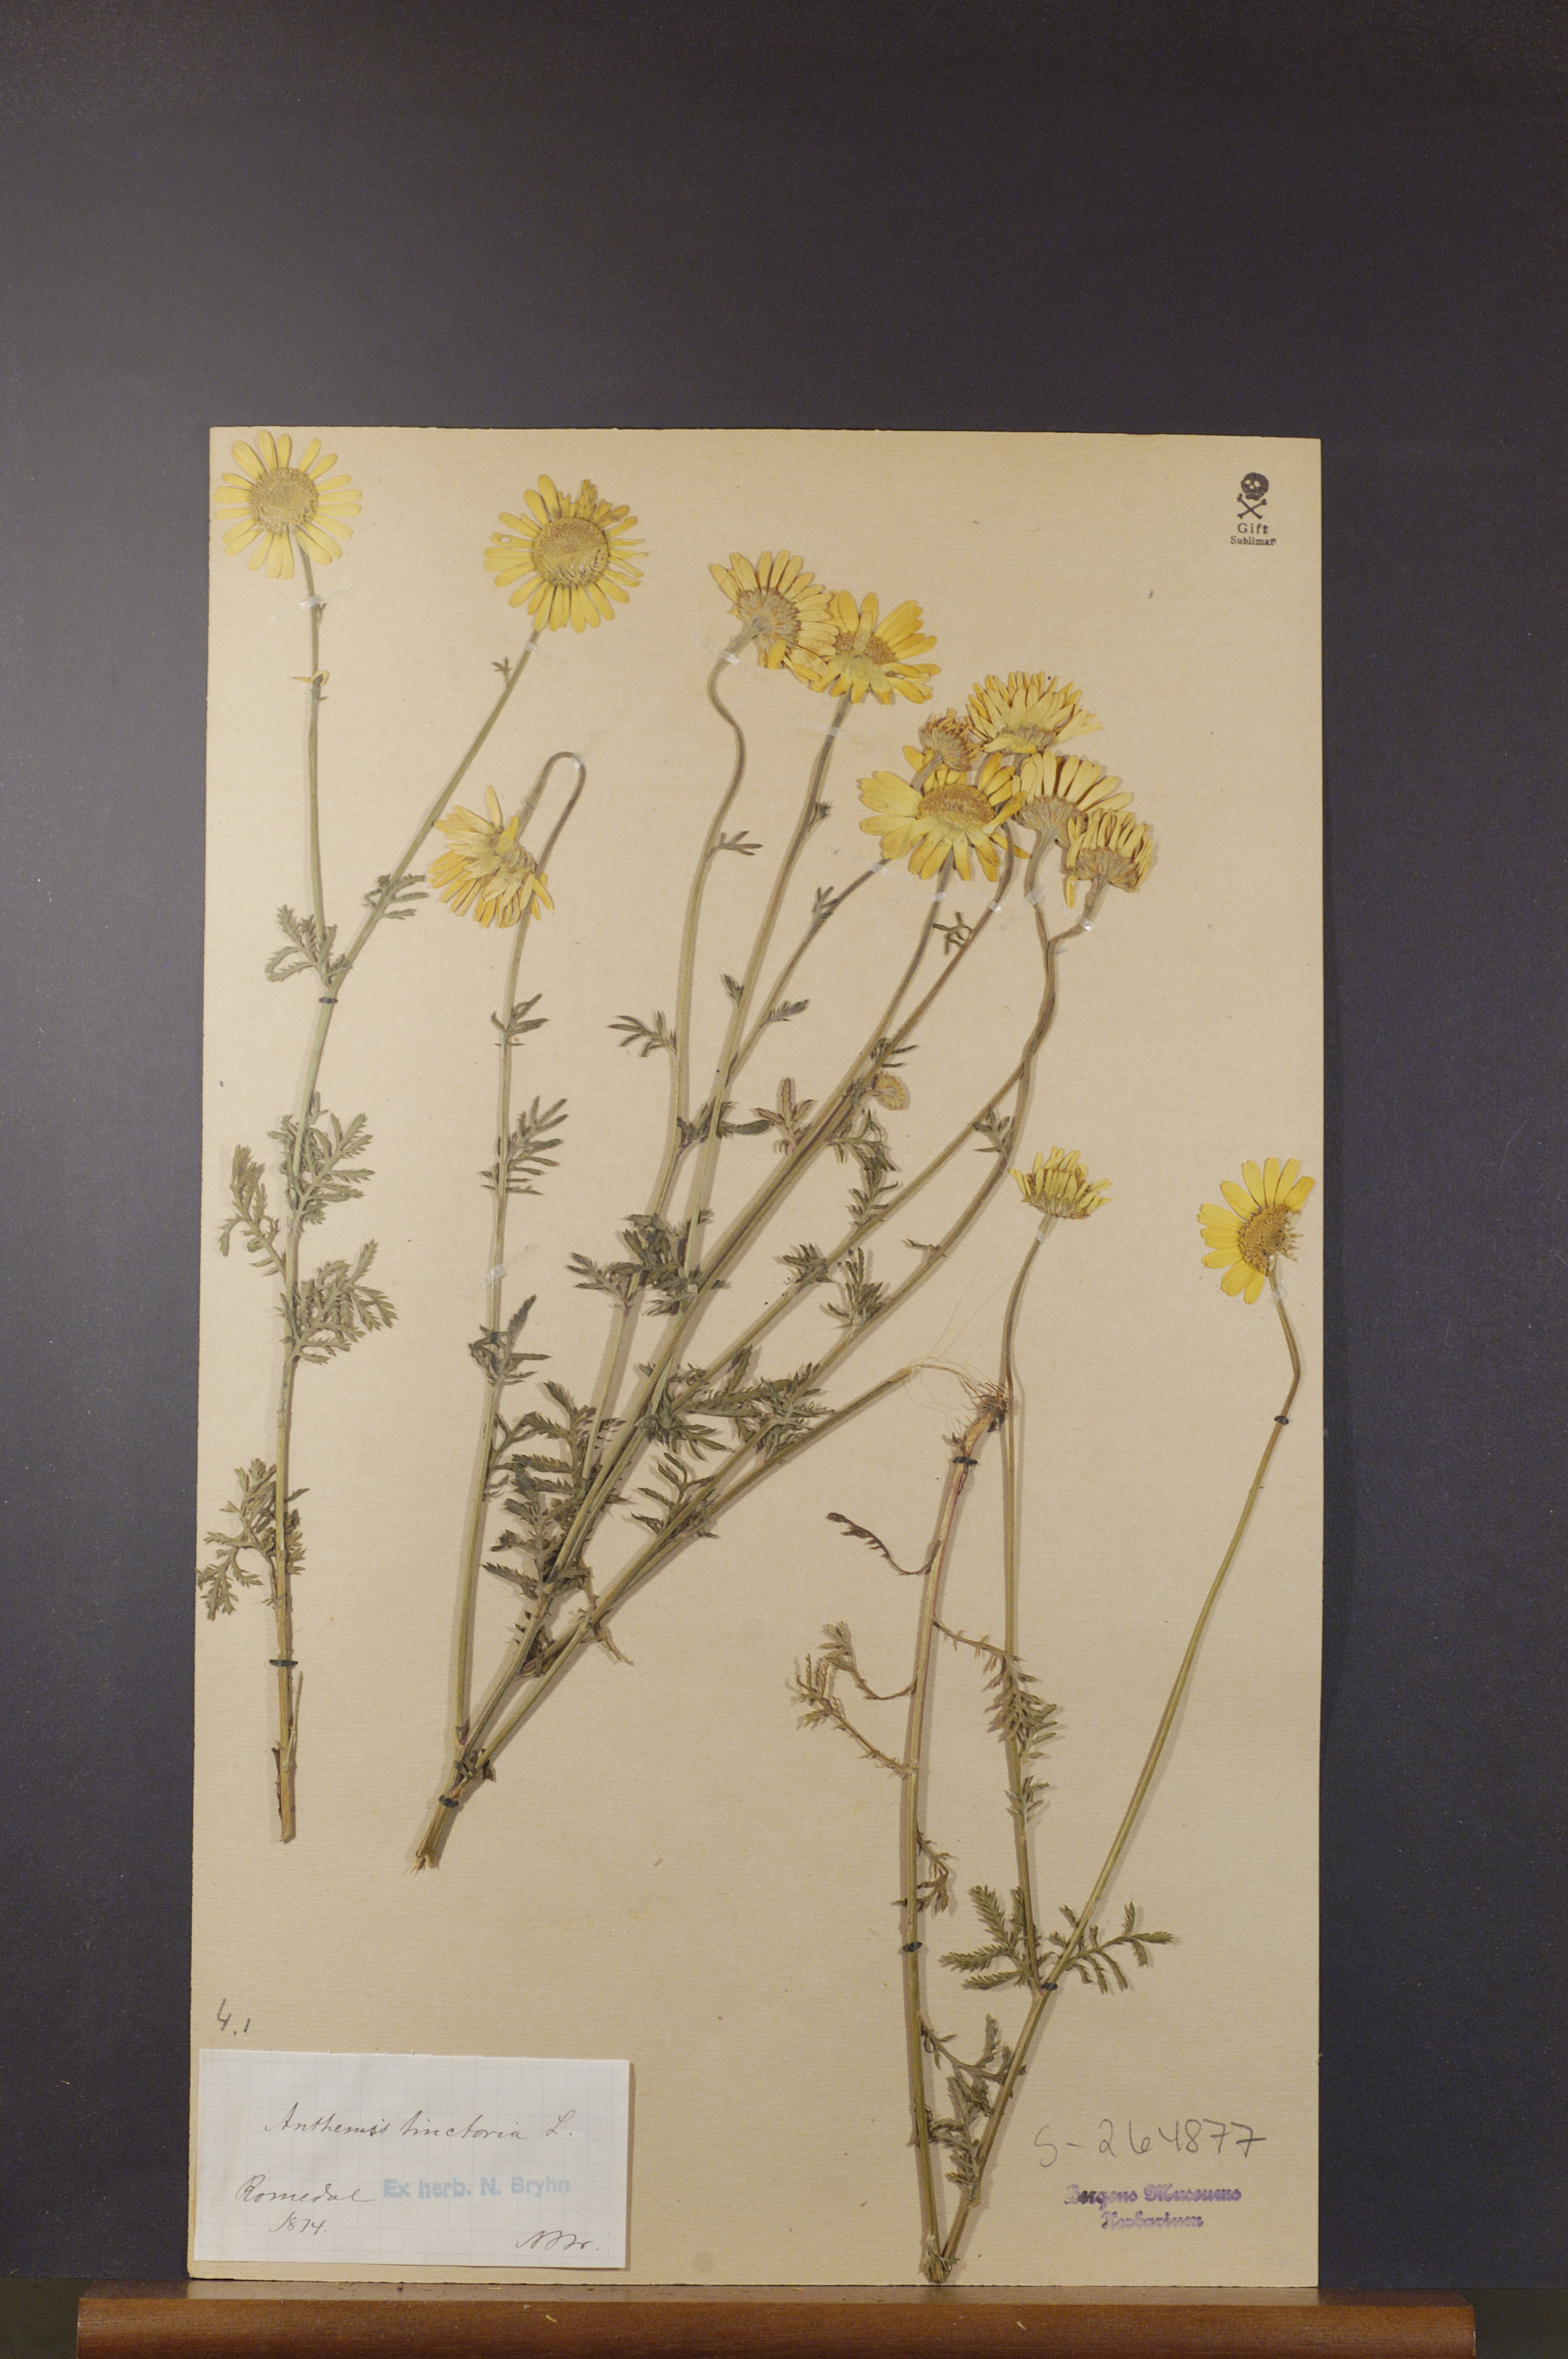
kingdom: Plantae
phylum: Tracheophyta
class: Magnoliopsida
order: Asterales
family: Asteraceae
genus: Cota
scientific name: Cota tinctoria
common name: Golden chamomile
